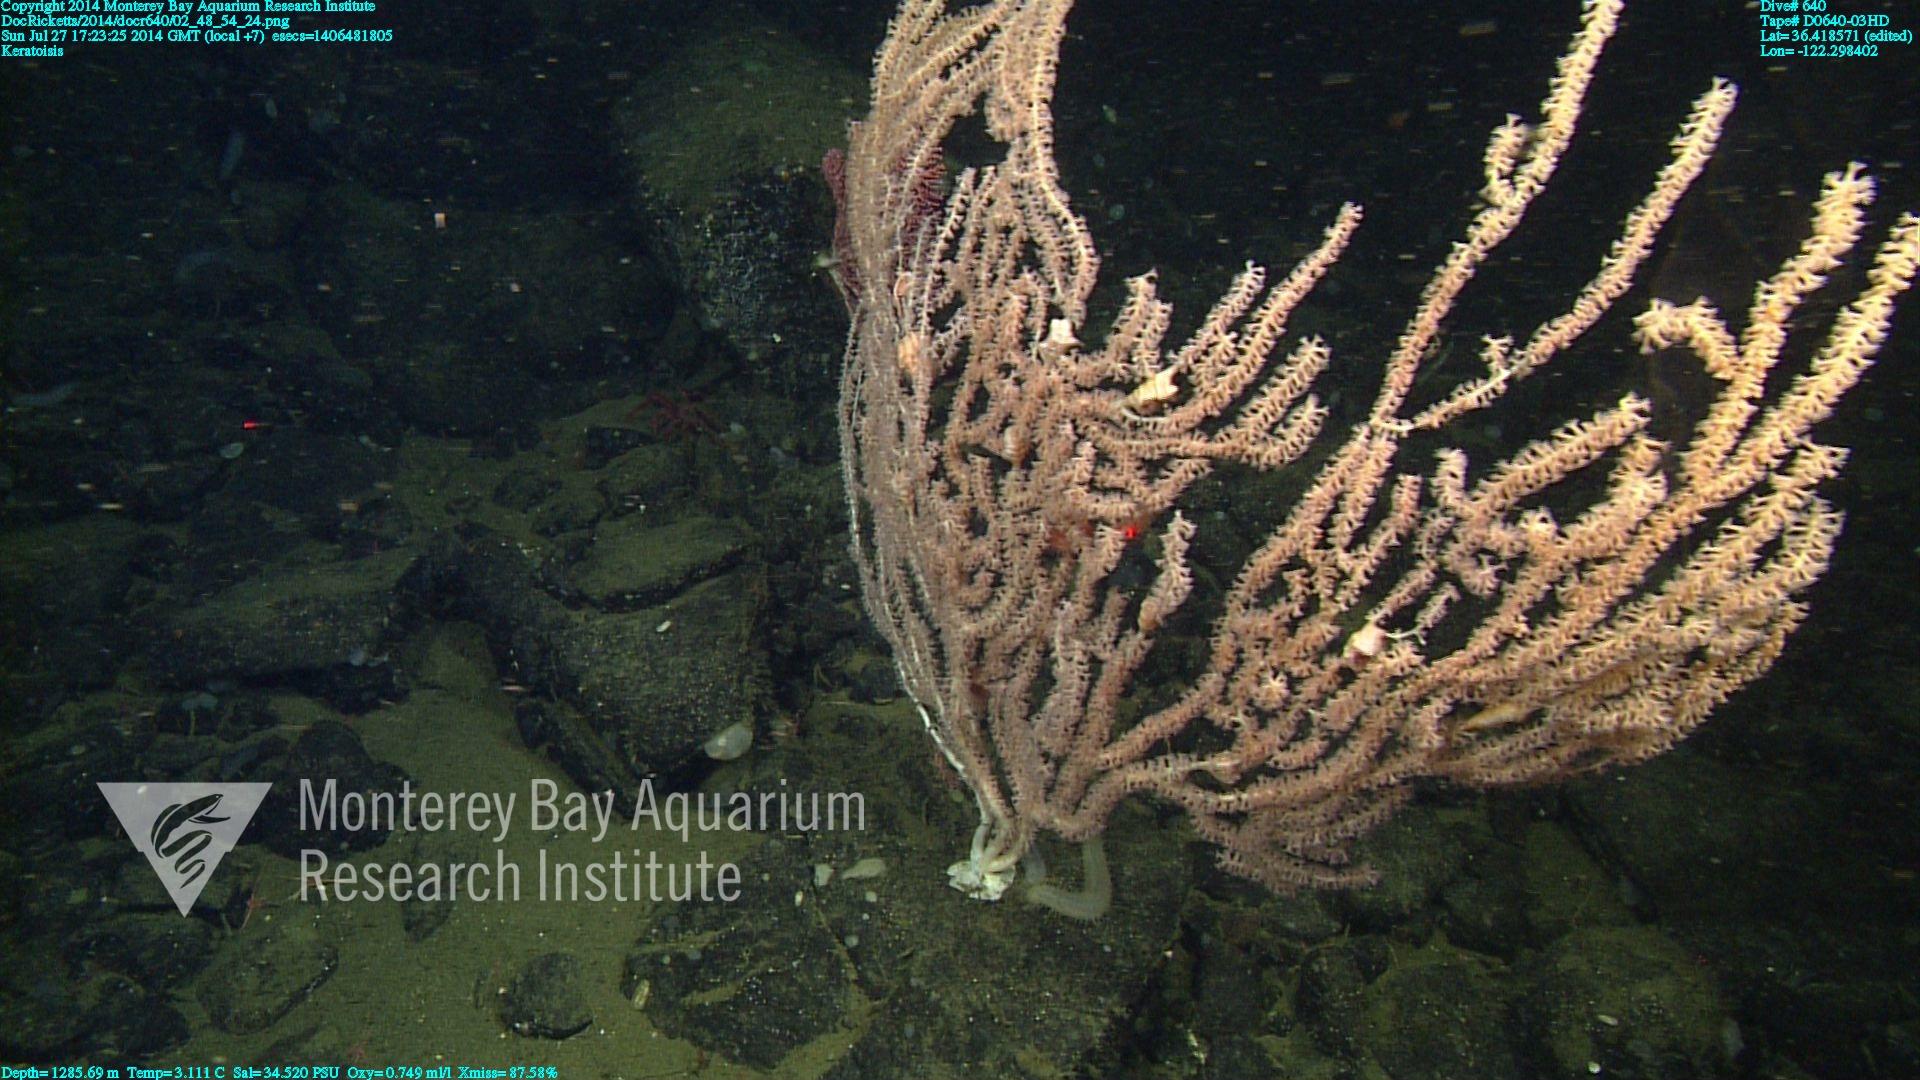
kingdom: Animalia
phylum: Cnidaria
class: Anthozoa
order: Scleralcyonacea
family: Keratoisididae
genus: Keratoisis
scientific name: Keratoisis
